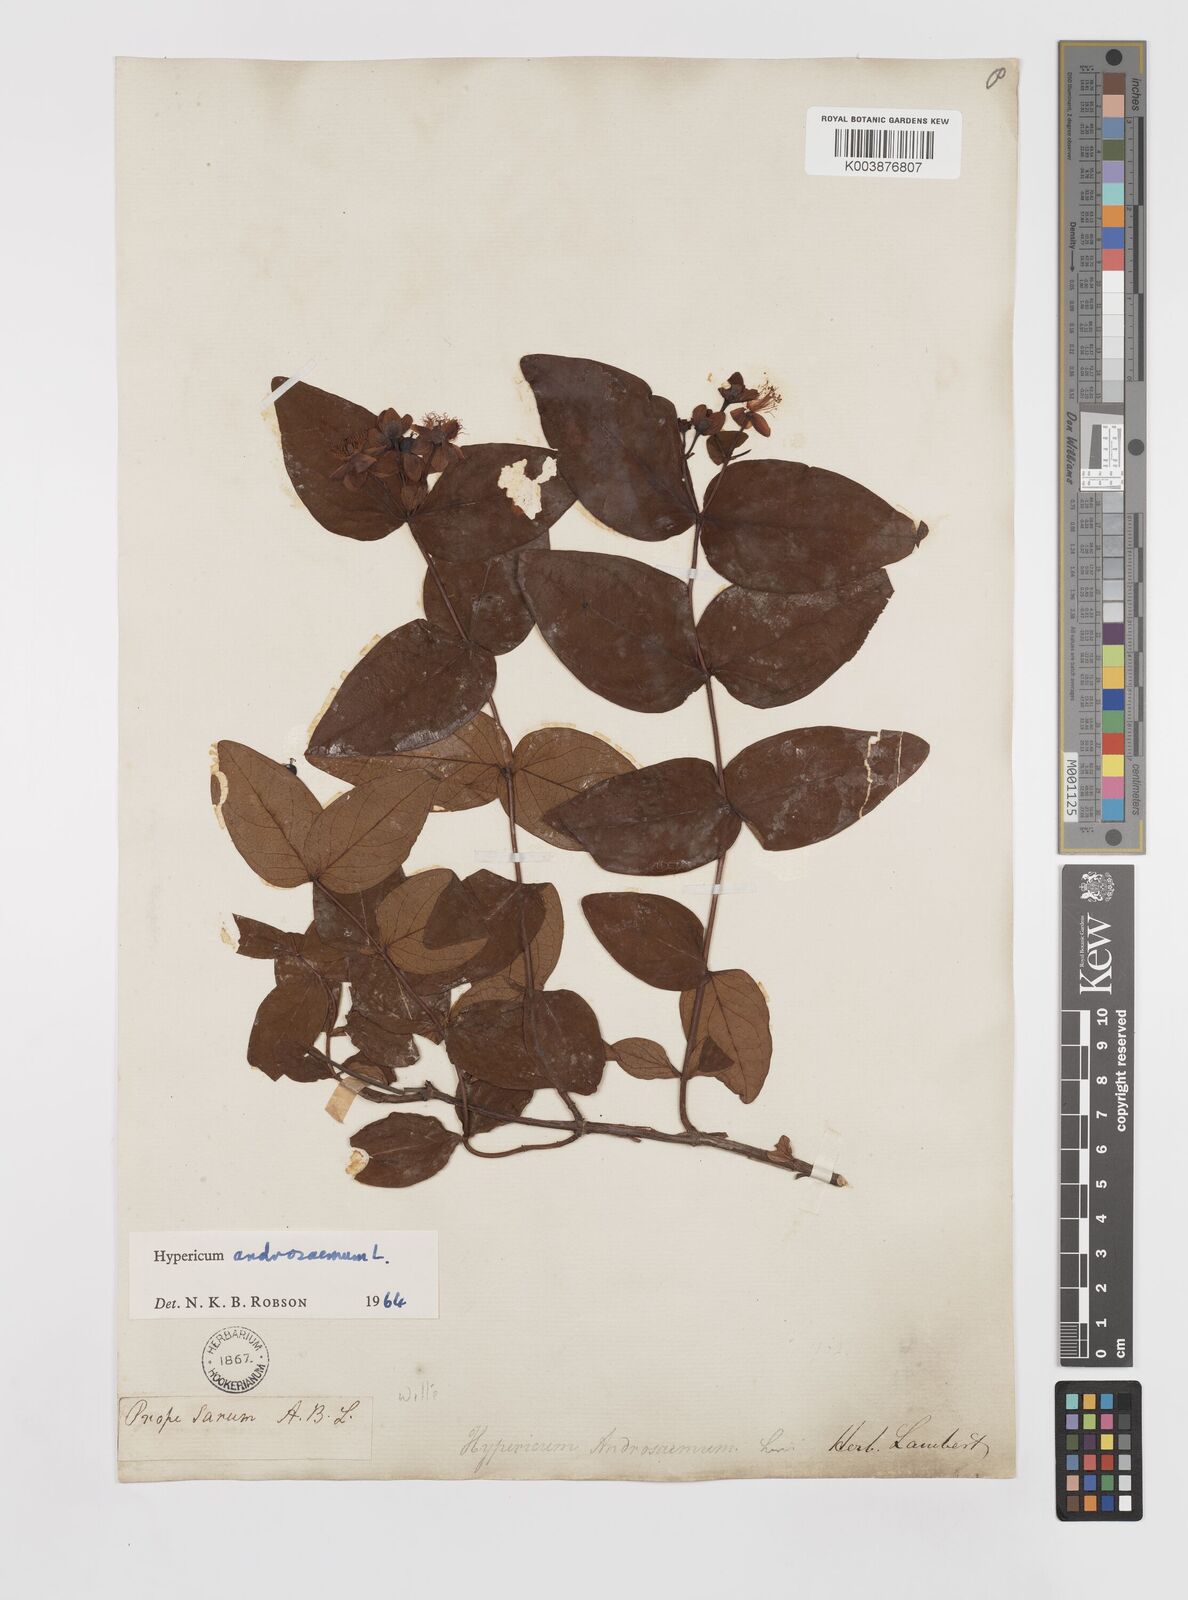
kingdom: Plantae
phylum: Tracheophyta
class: Magnoliopsida
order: Malpighiales
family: Hypericaceae
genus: Hypericum
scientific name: Hypericum androsaemum
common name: Sweet-amber
